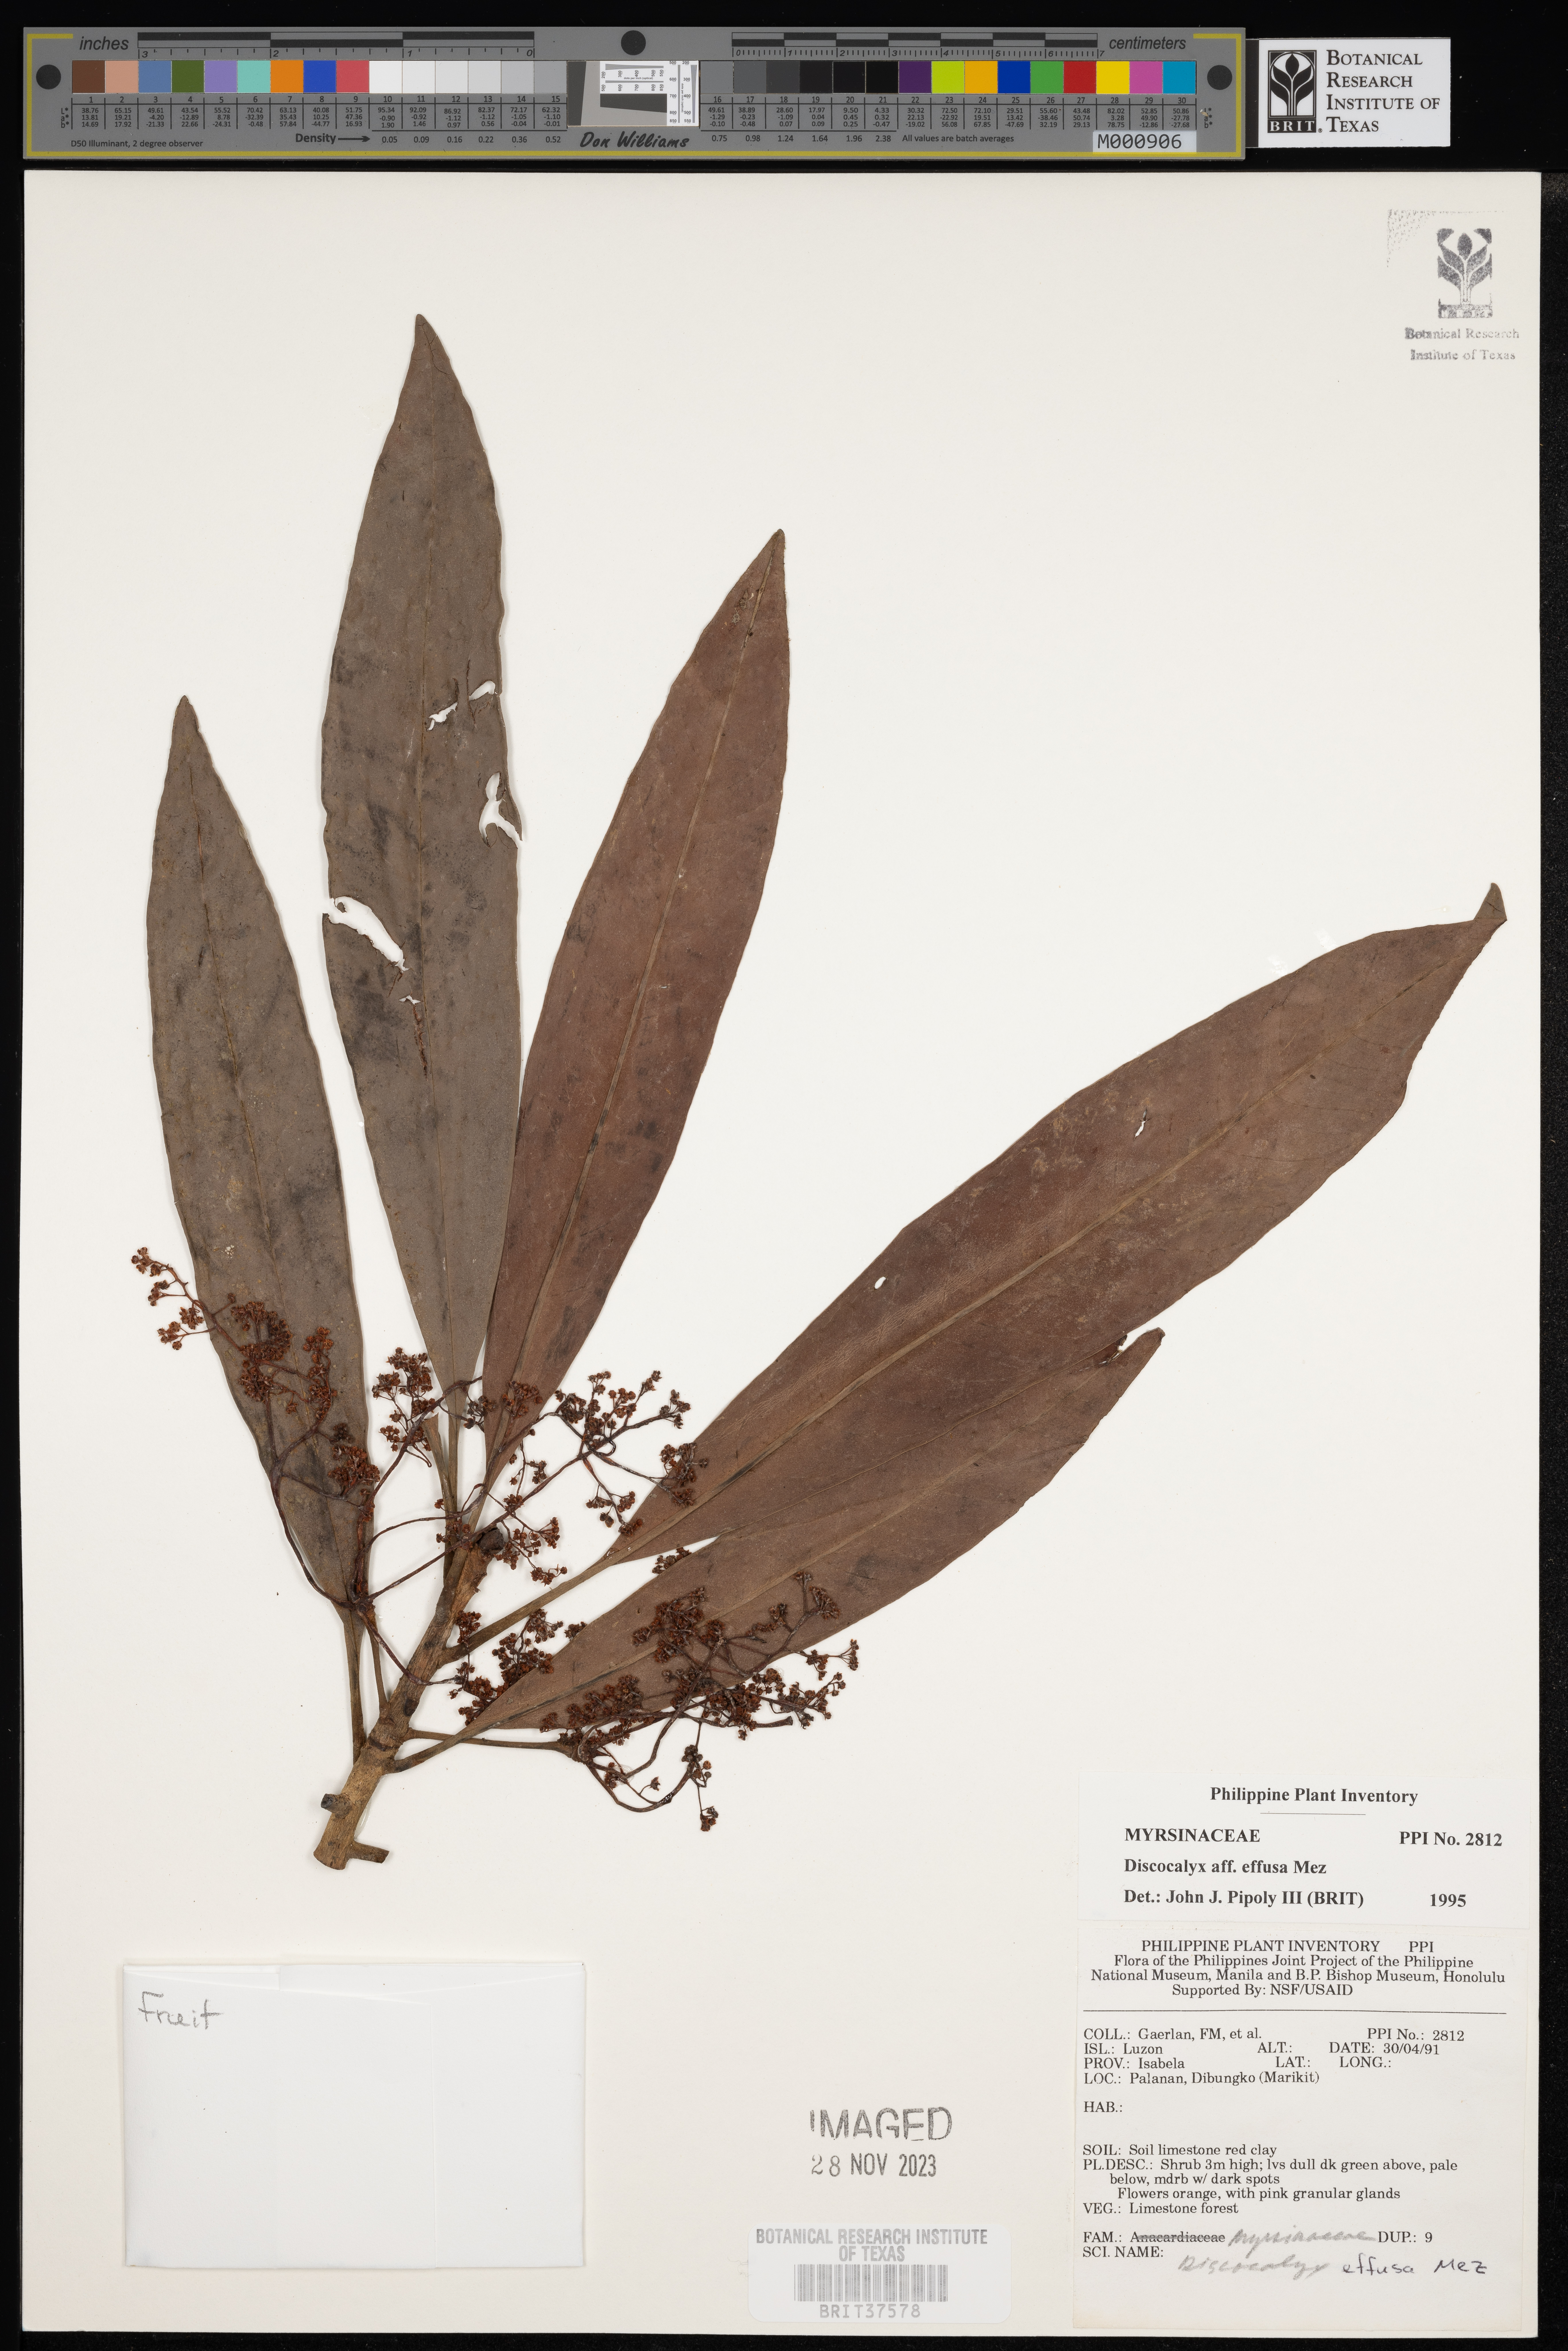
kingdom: Plantae
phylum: Tracheophyta
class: Magnoliopsida
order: Ericales
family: Primulaceae
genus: Discocalyx
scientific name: Discocalyx effusa
